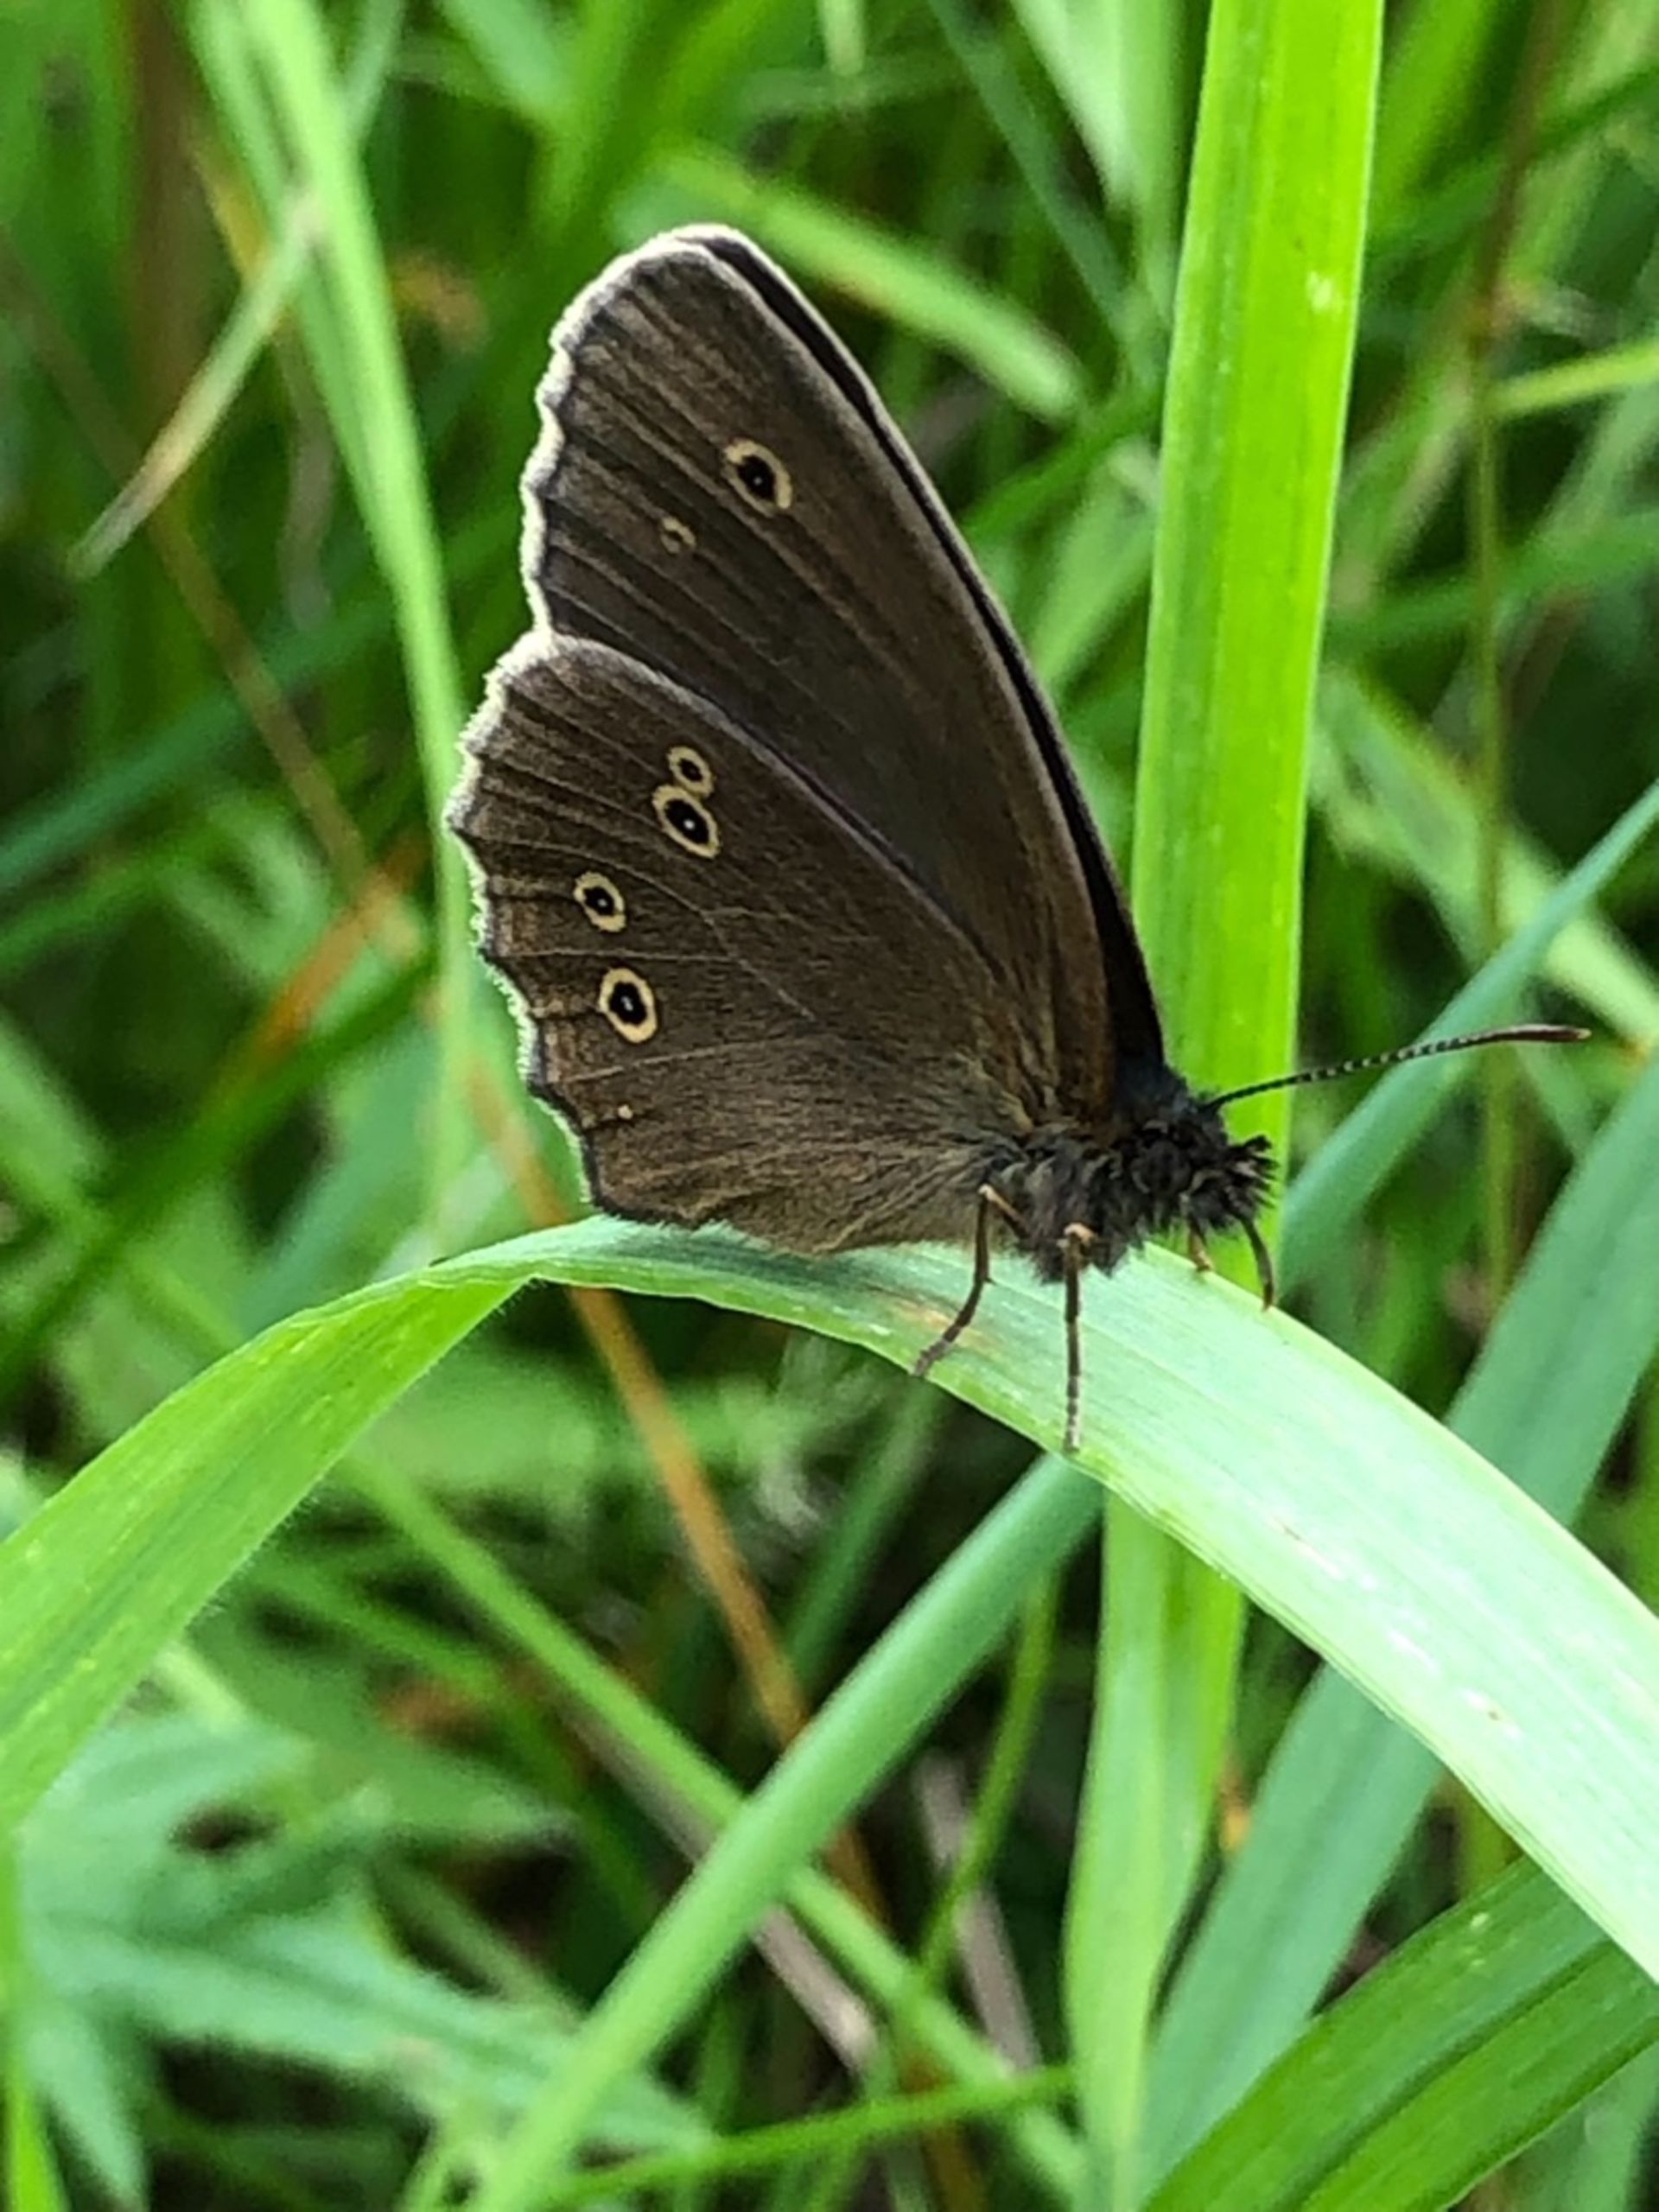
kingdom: Animalia
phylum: Arthropoda
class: Insecta
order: Lepidoptera
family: Nymphalidae
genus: Aphantopus
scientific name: Aphantopus hyperantus
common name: Engrandøje
